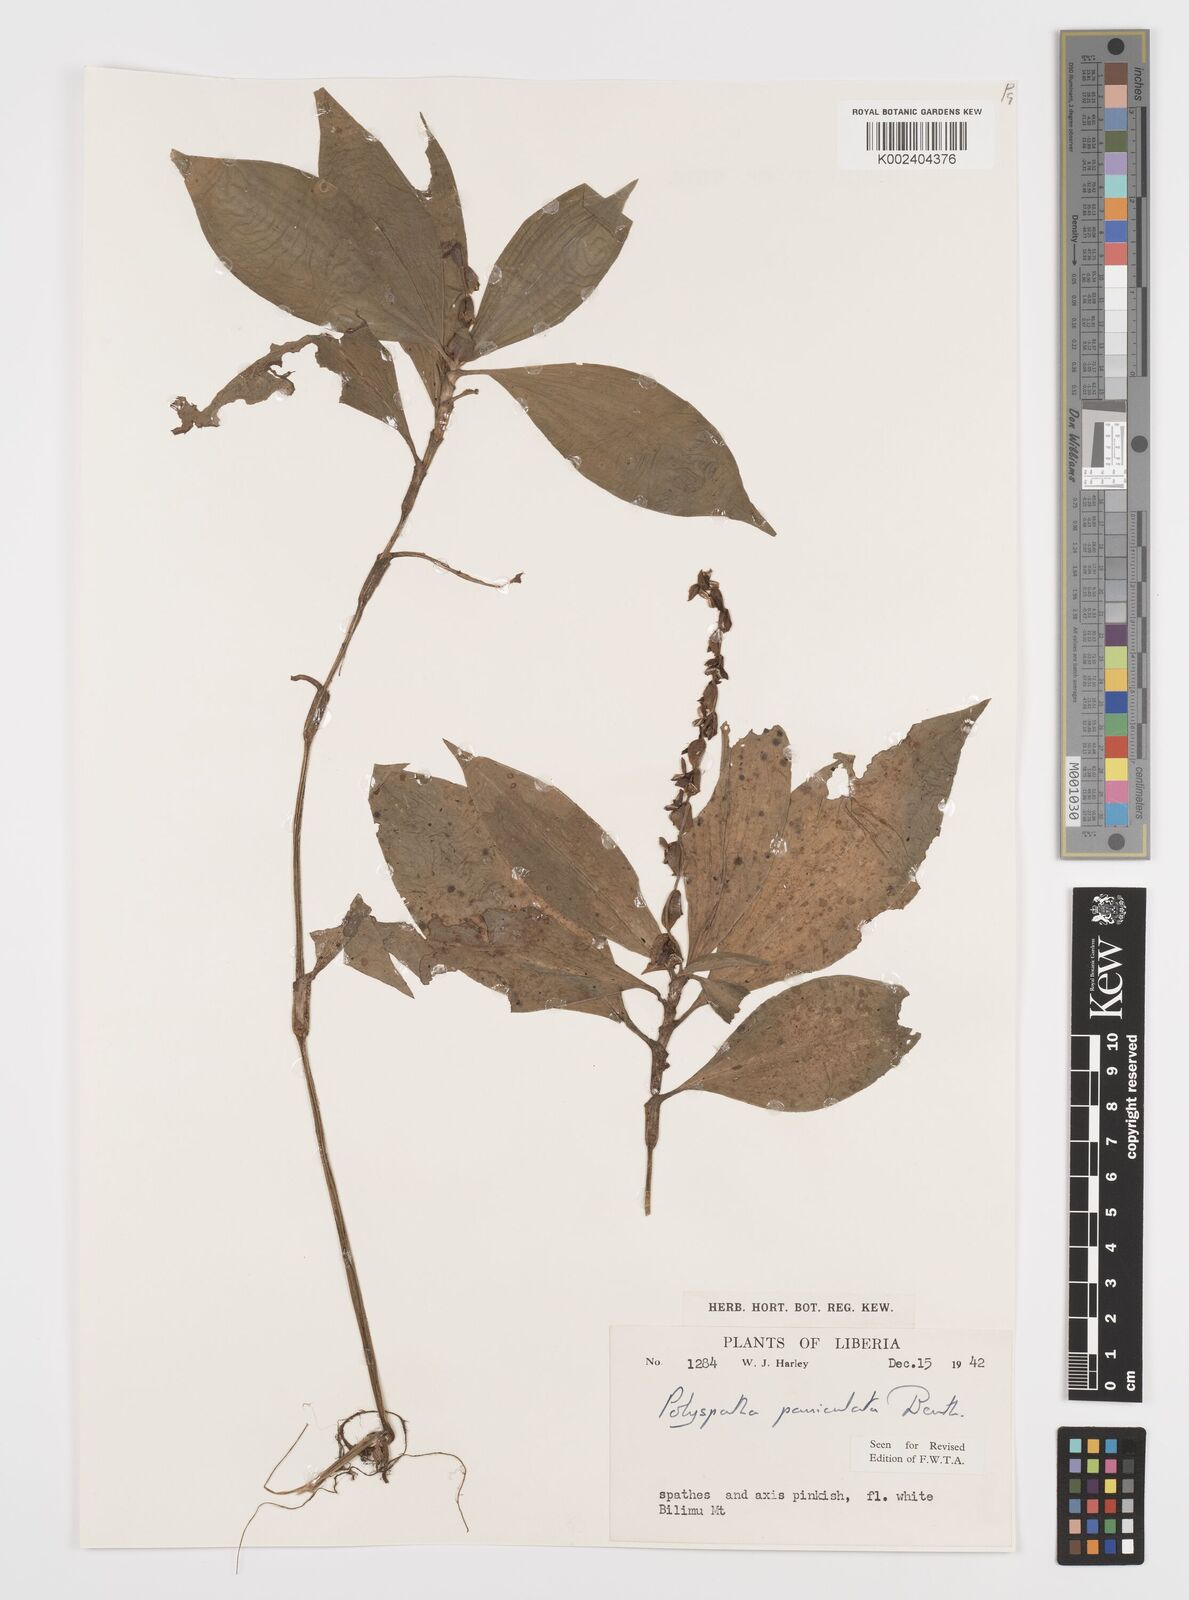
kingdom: Plantae
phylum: Tracheophyta
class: Liliopsida
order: Commelinales
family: Commelinaceae
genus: Polyspatha
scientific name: Polyspatha paniculata
